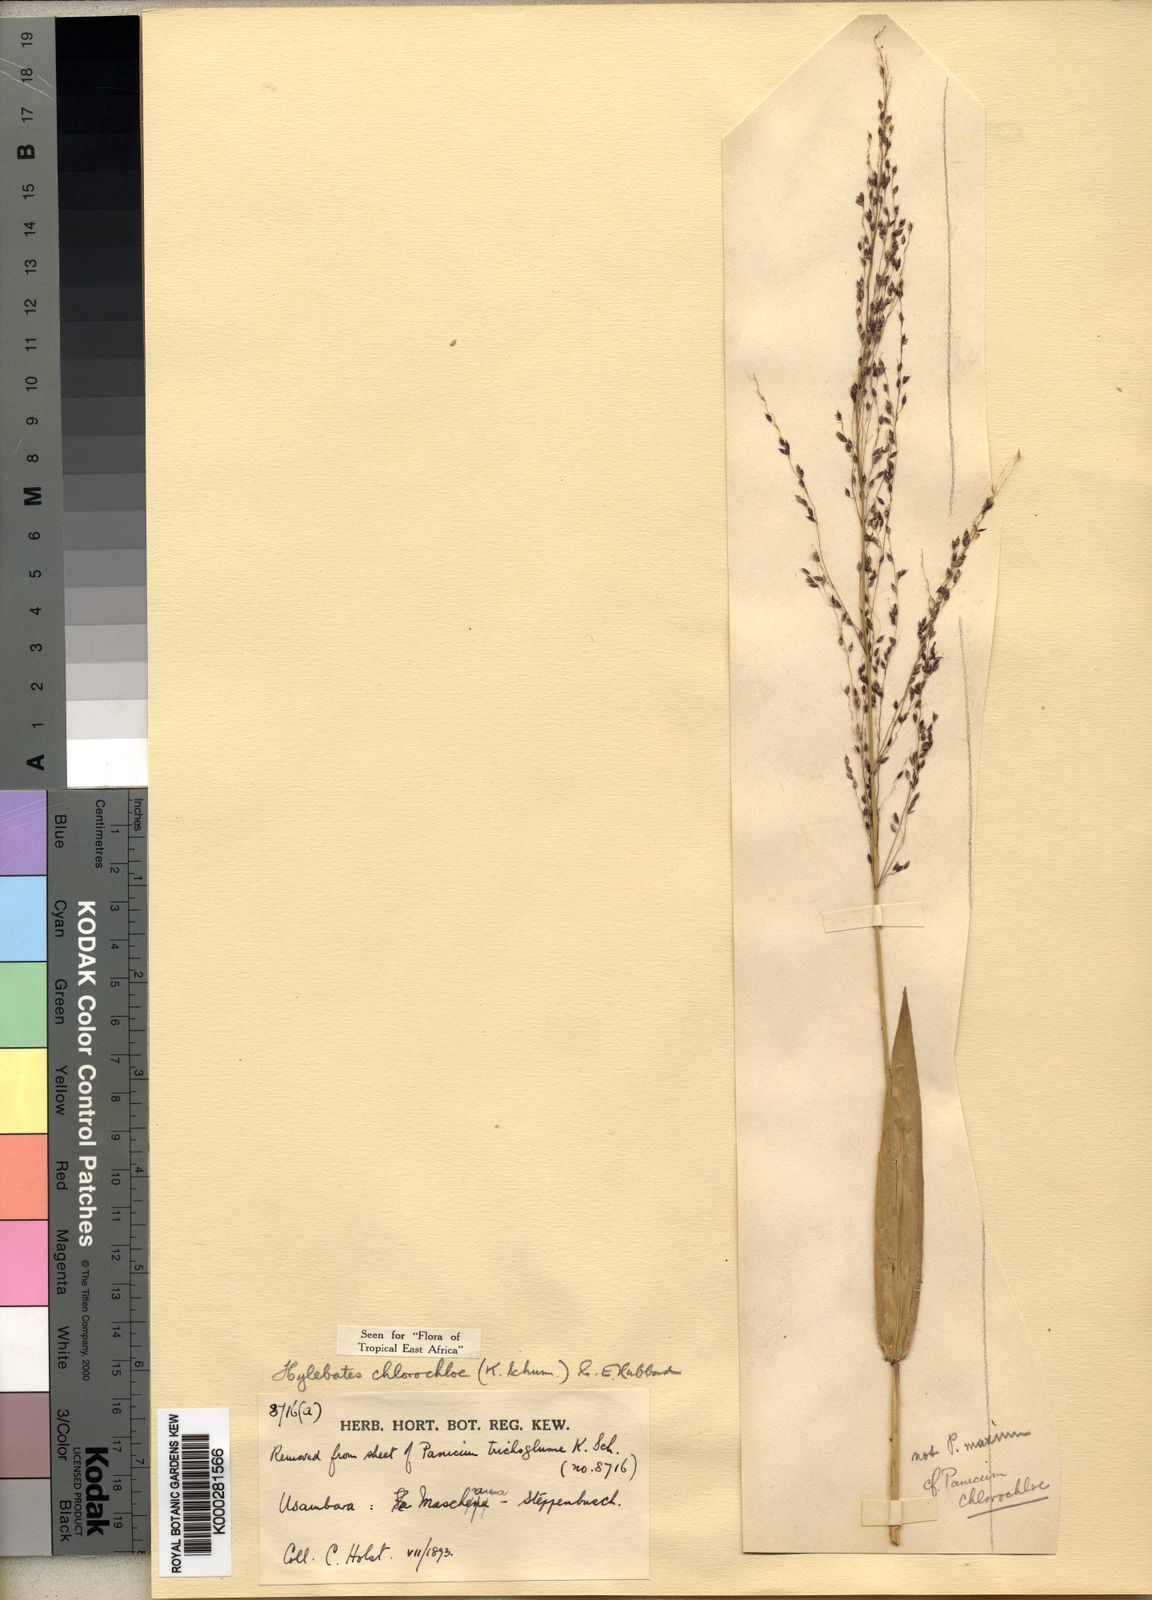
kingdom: Plantae
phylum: Tracheophyta
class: Liliopsida
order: Poales
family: Poaceae
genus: Hylebates
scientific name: Hylebates chlorochloe
